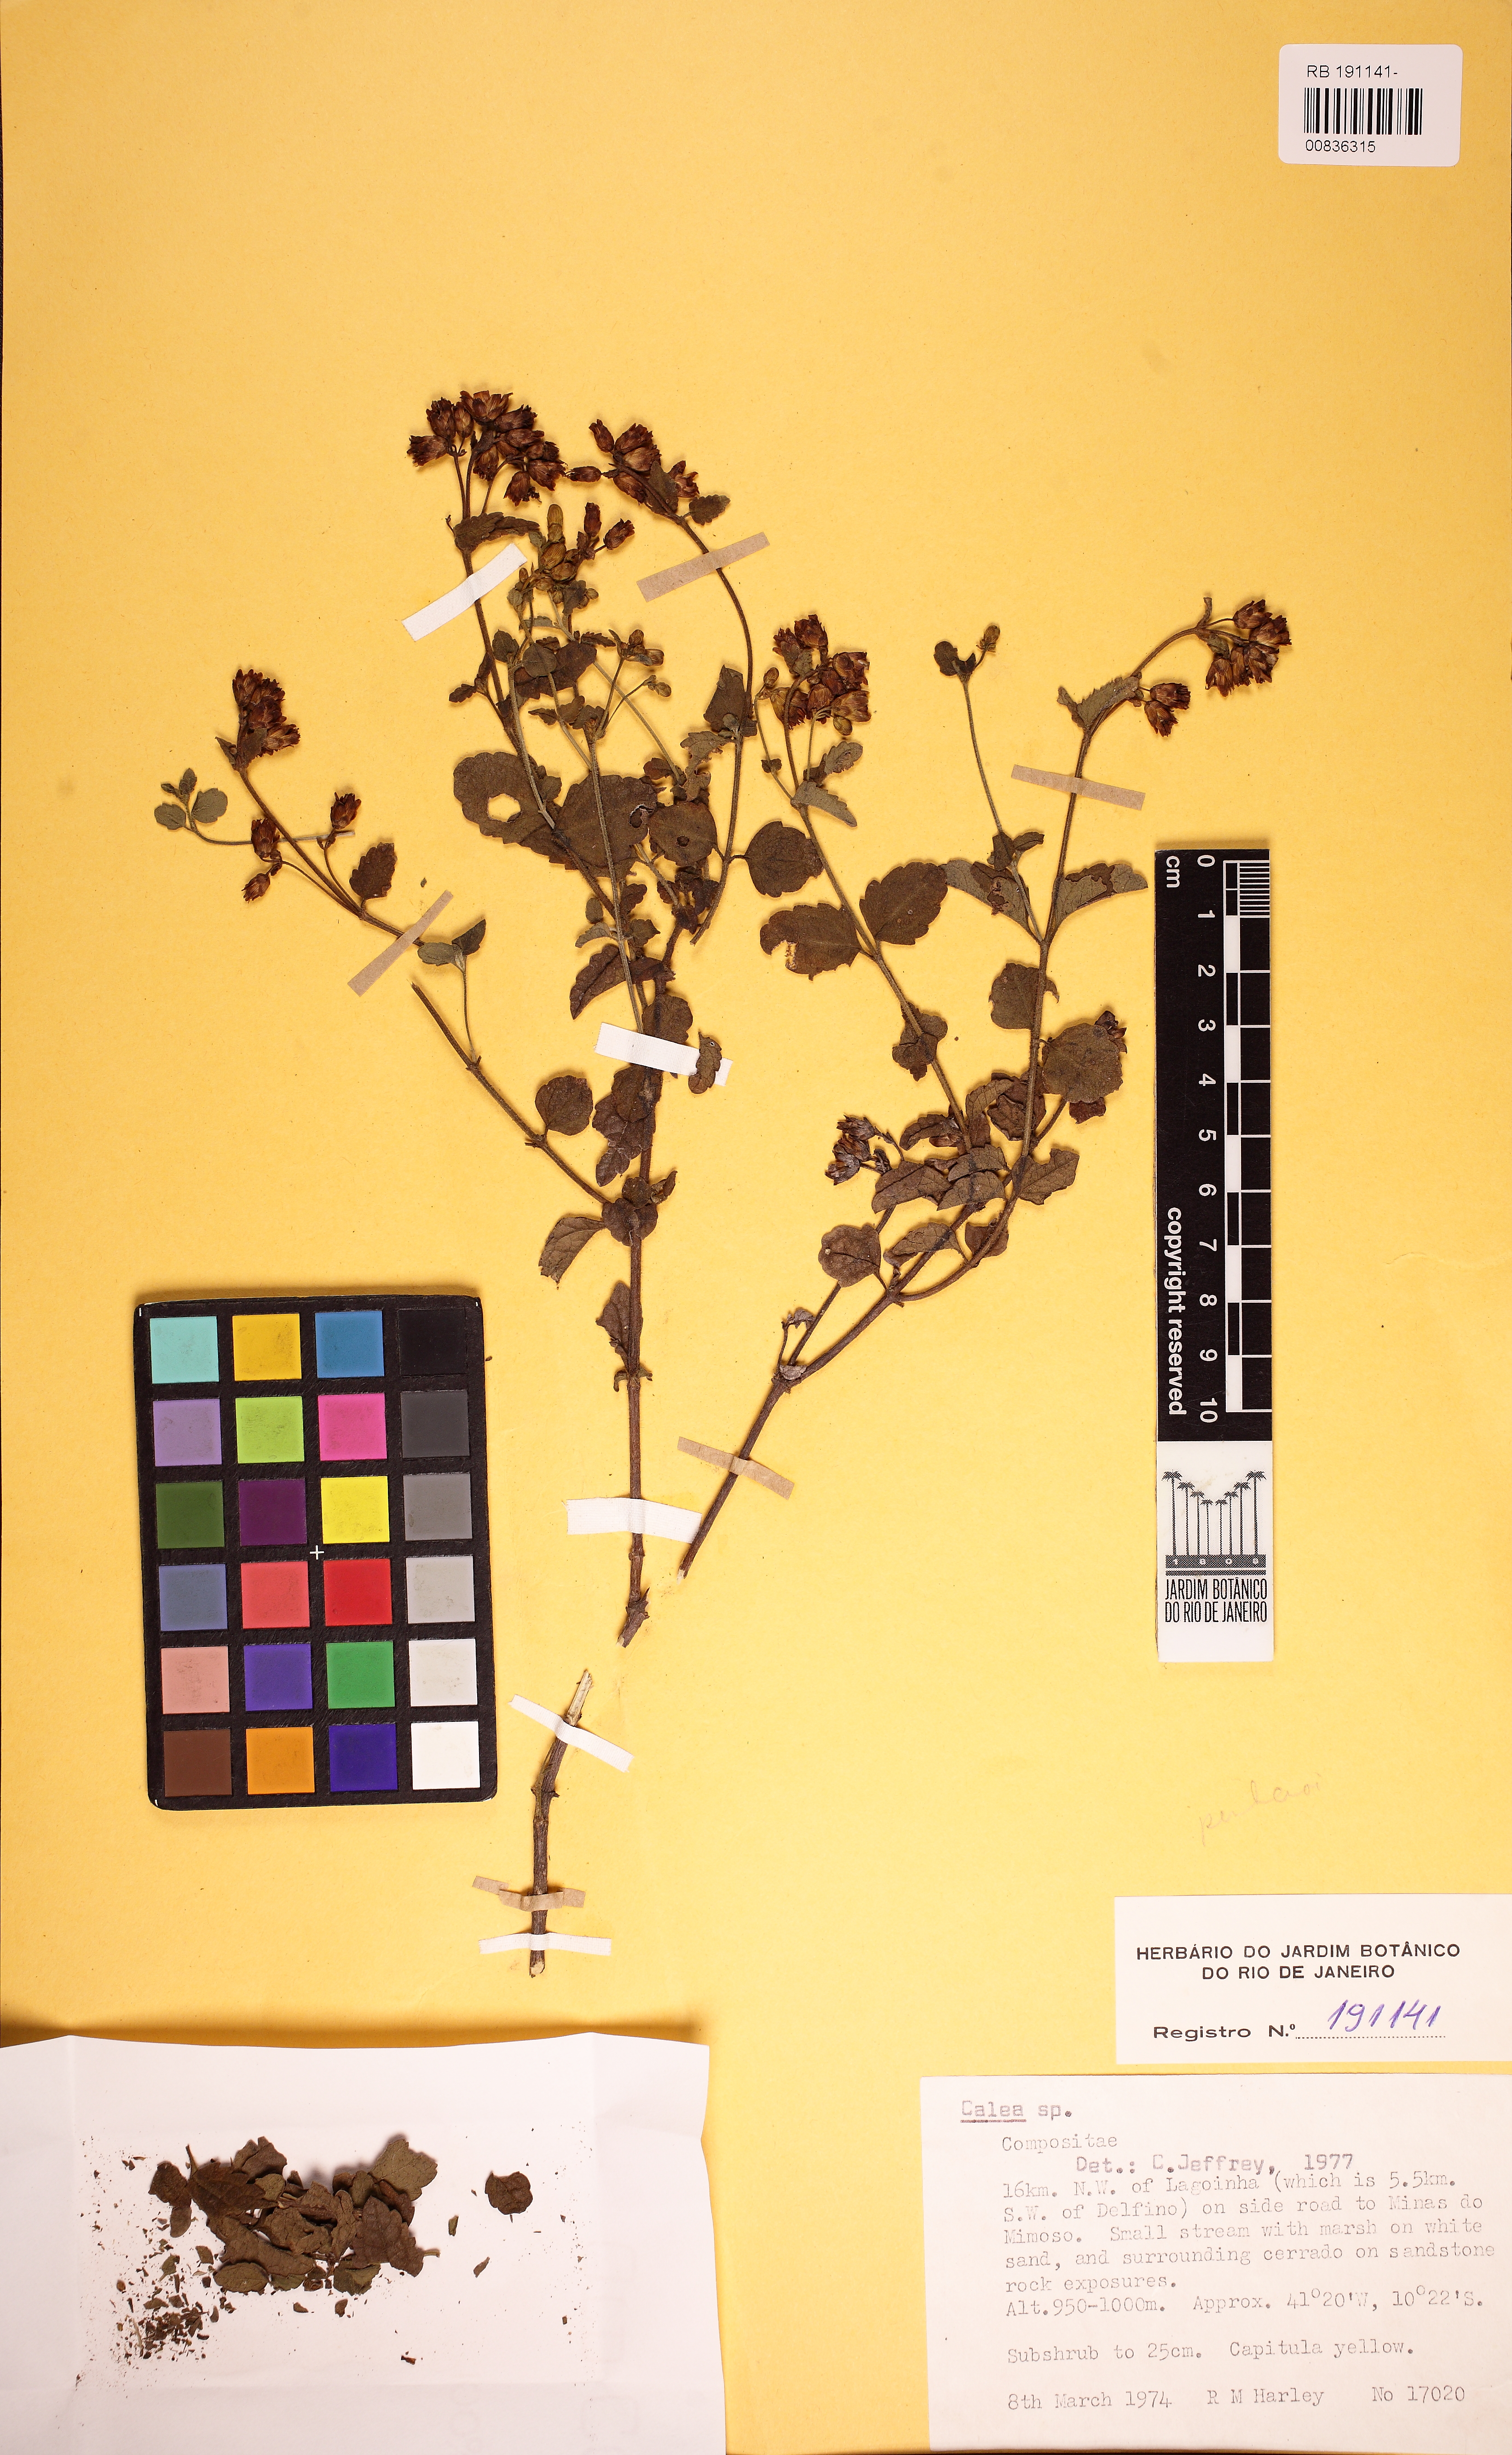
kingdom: Plantae
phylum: Tracheophyta
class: Magnoliopsida
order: Asterales
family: Asteraceae
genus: Calea
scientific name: Calea
